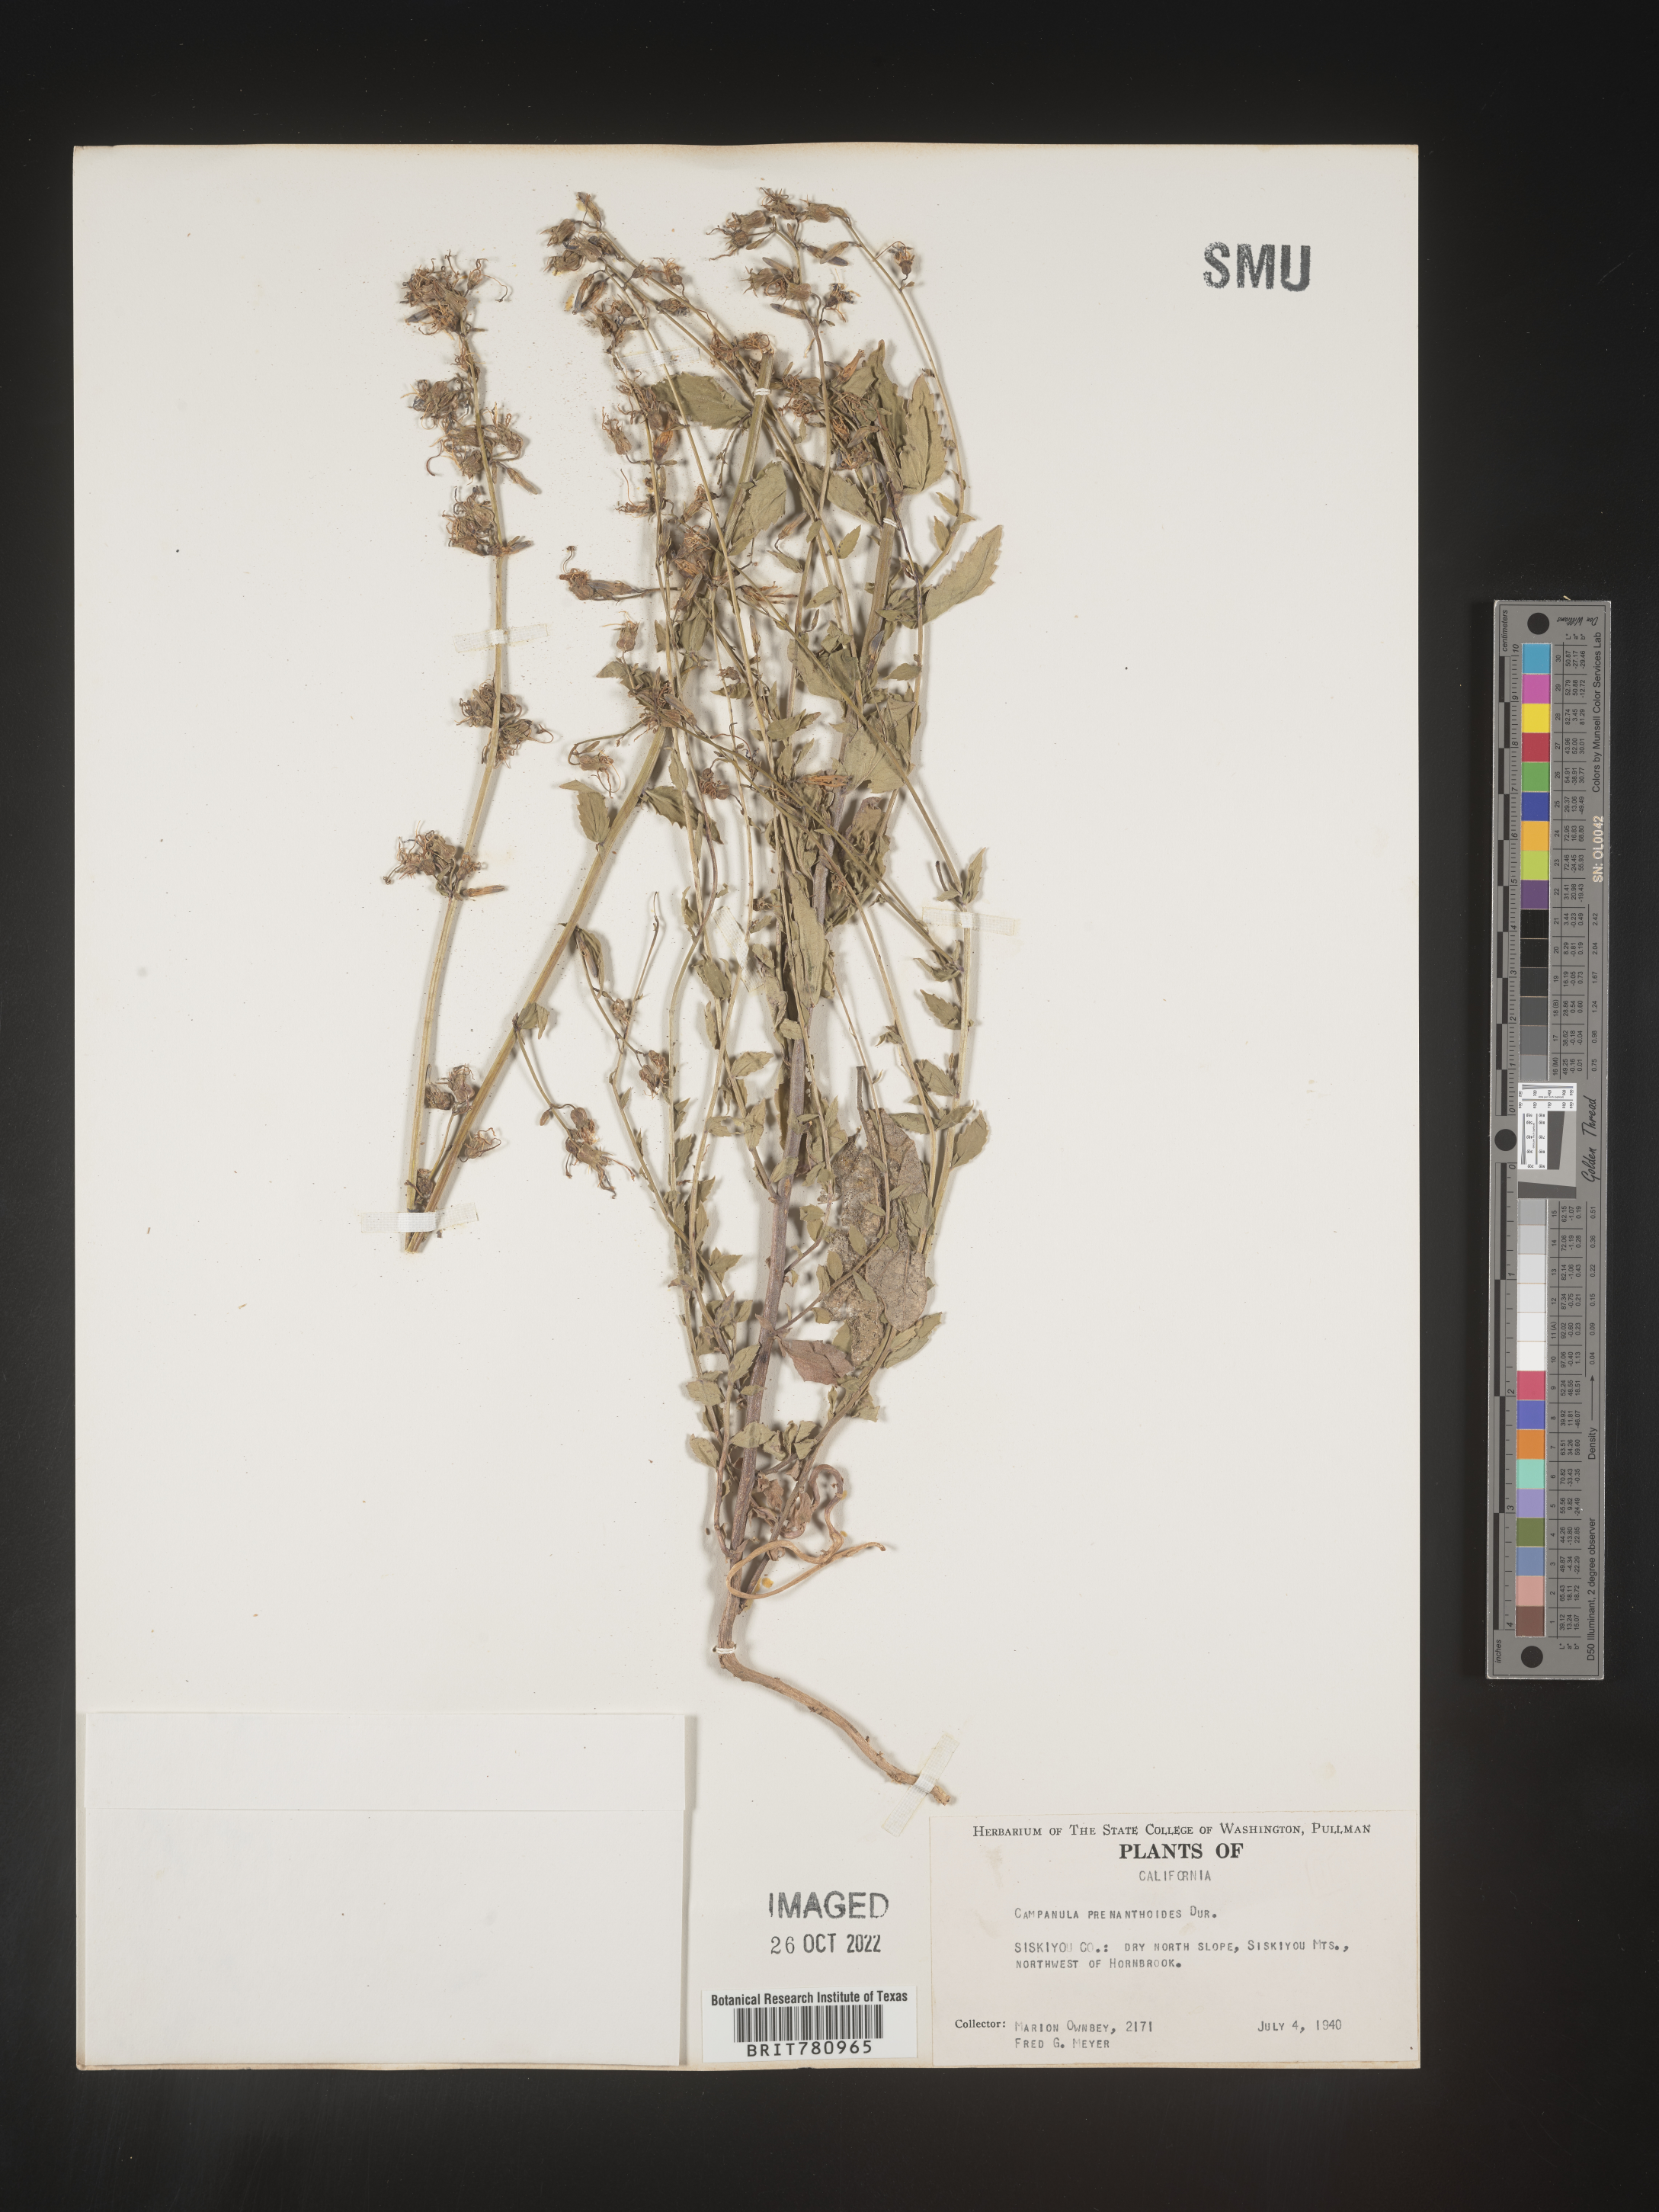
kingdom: Plantae
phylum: Tracheophyta
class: Magnoliopsida
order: Asterales
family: Campanulaceae
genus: Smithiastrum
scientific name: Smithiastrum prenanthoides
